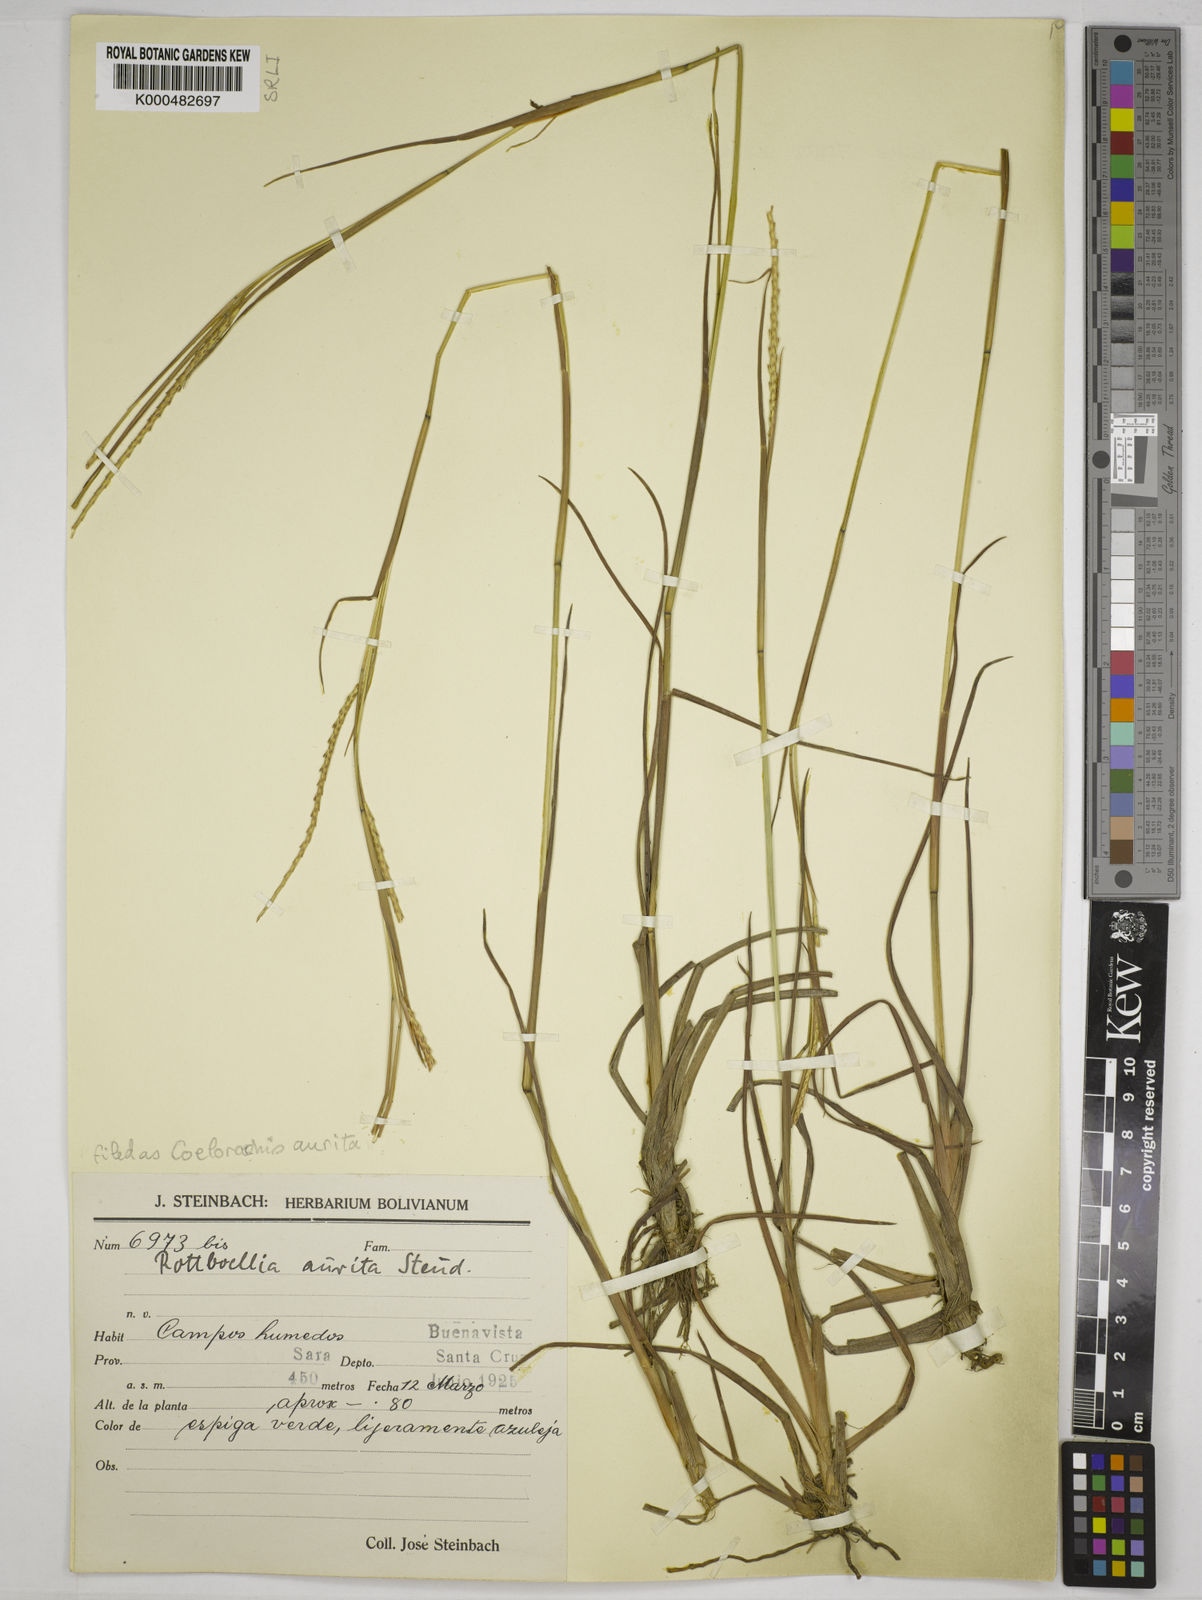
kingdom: Plantae
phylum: Tracheophyta
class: Liliopsida
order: Poales
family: Poaceae
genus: Rottboellia
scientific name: Rottboellia aurita
